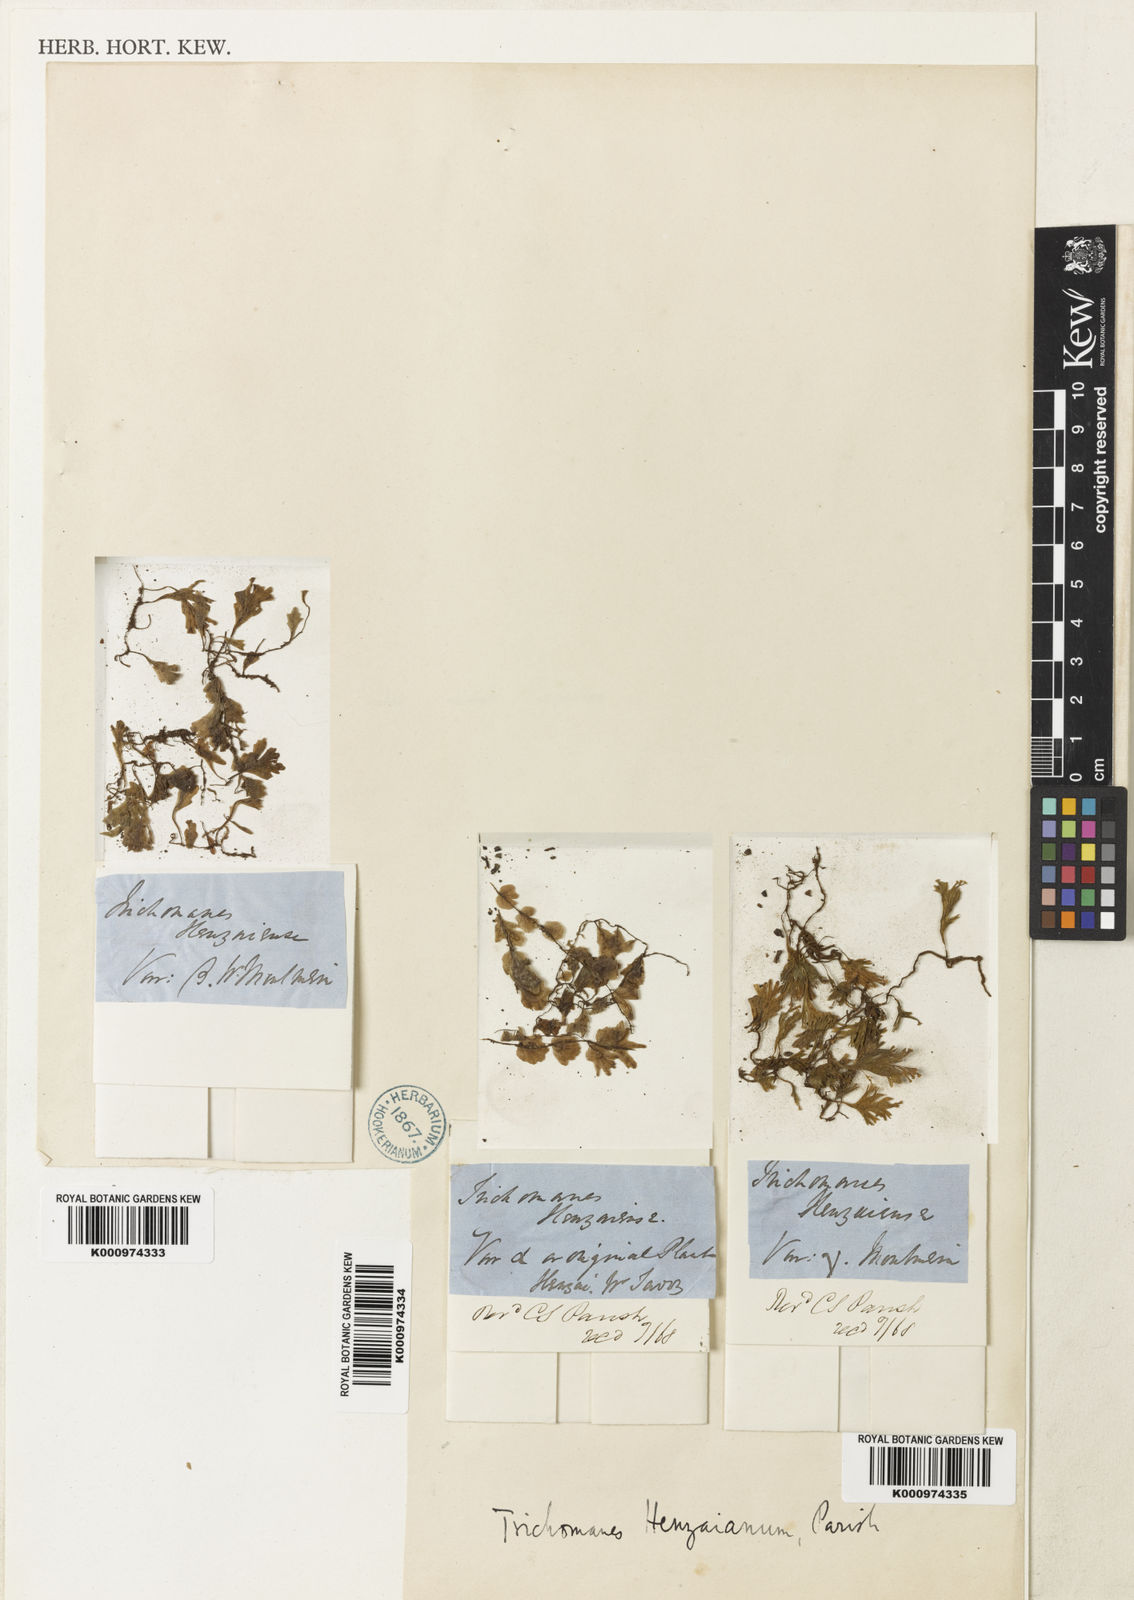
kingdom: Plantae
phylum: Tracheophyta
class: Polypodiopsida
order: Hymenophyllales
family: Hymenophyllaceae
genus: Trichomanes
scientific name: Trichomanes
